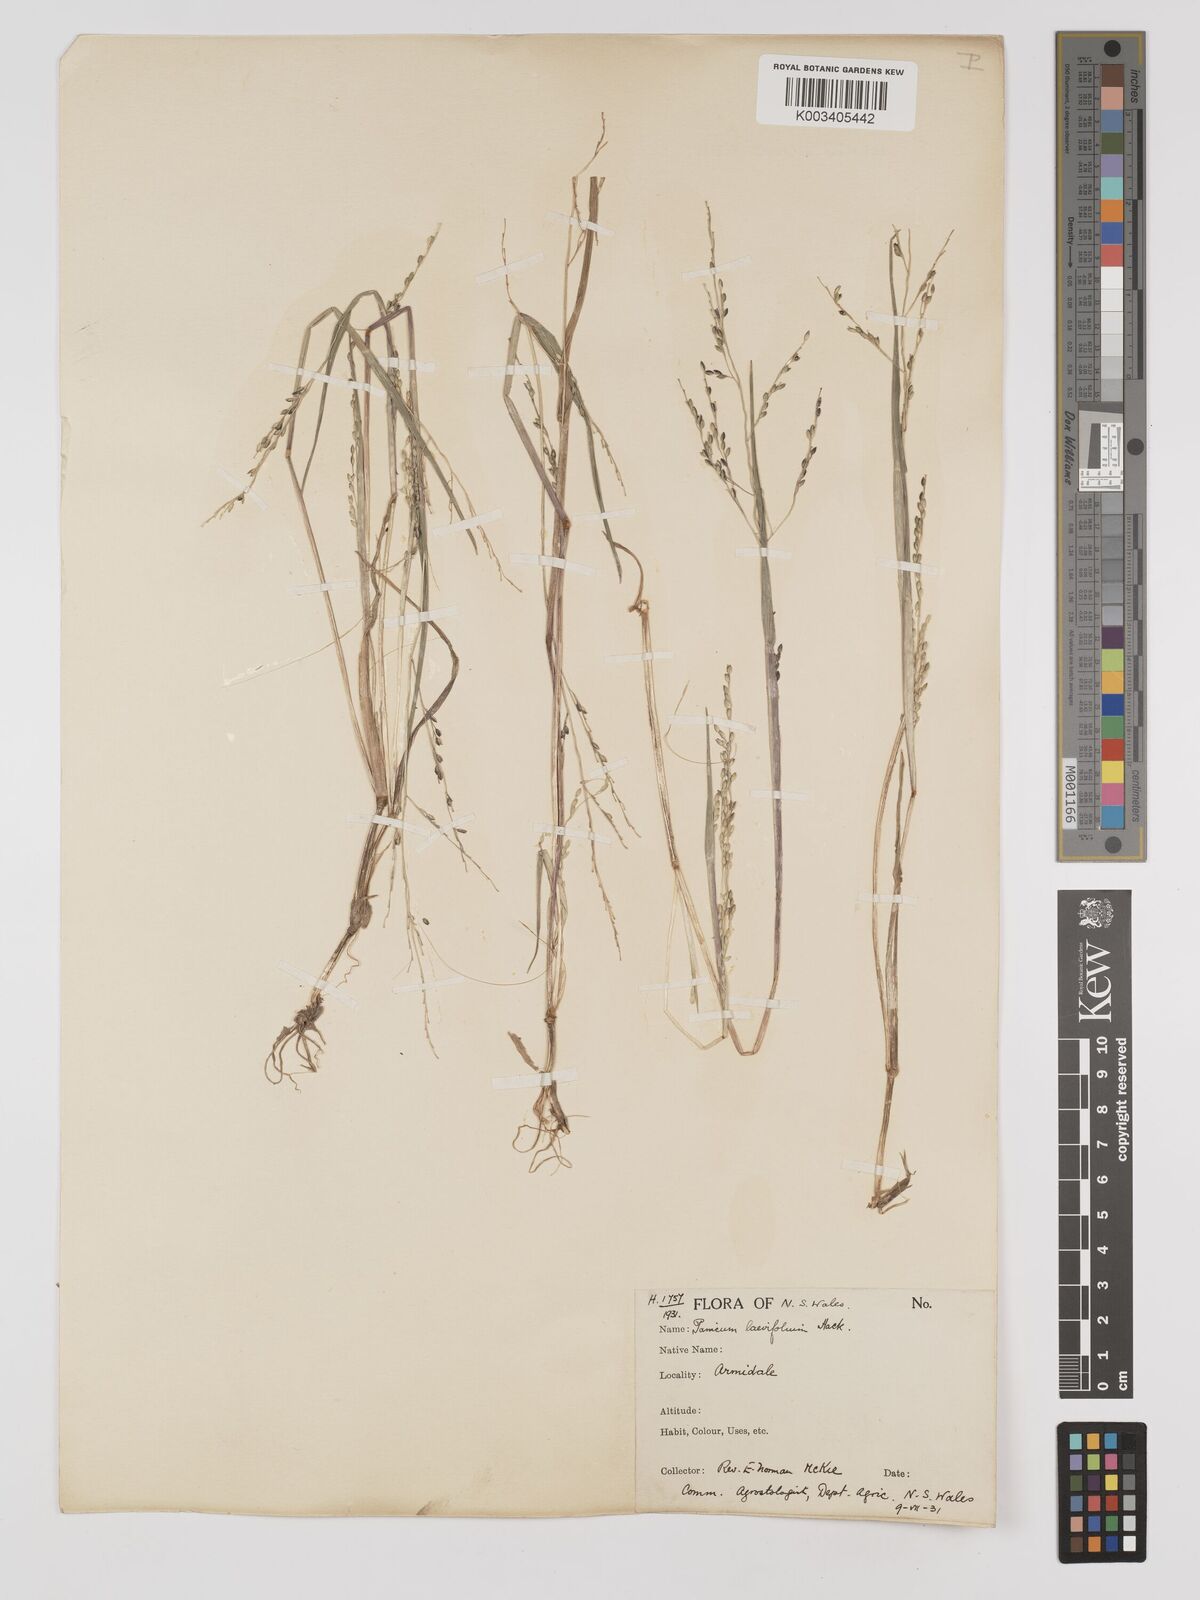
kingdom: Plantae
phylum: Tracheophyta
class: Liliopsida
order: Poales
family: Poaceae
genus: Panicum
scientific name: Panicum schinzii
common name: Sweet grass
